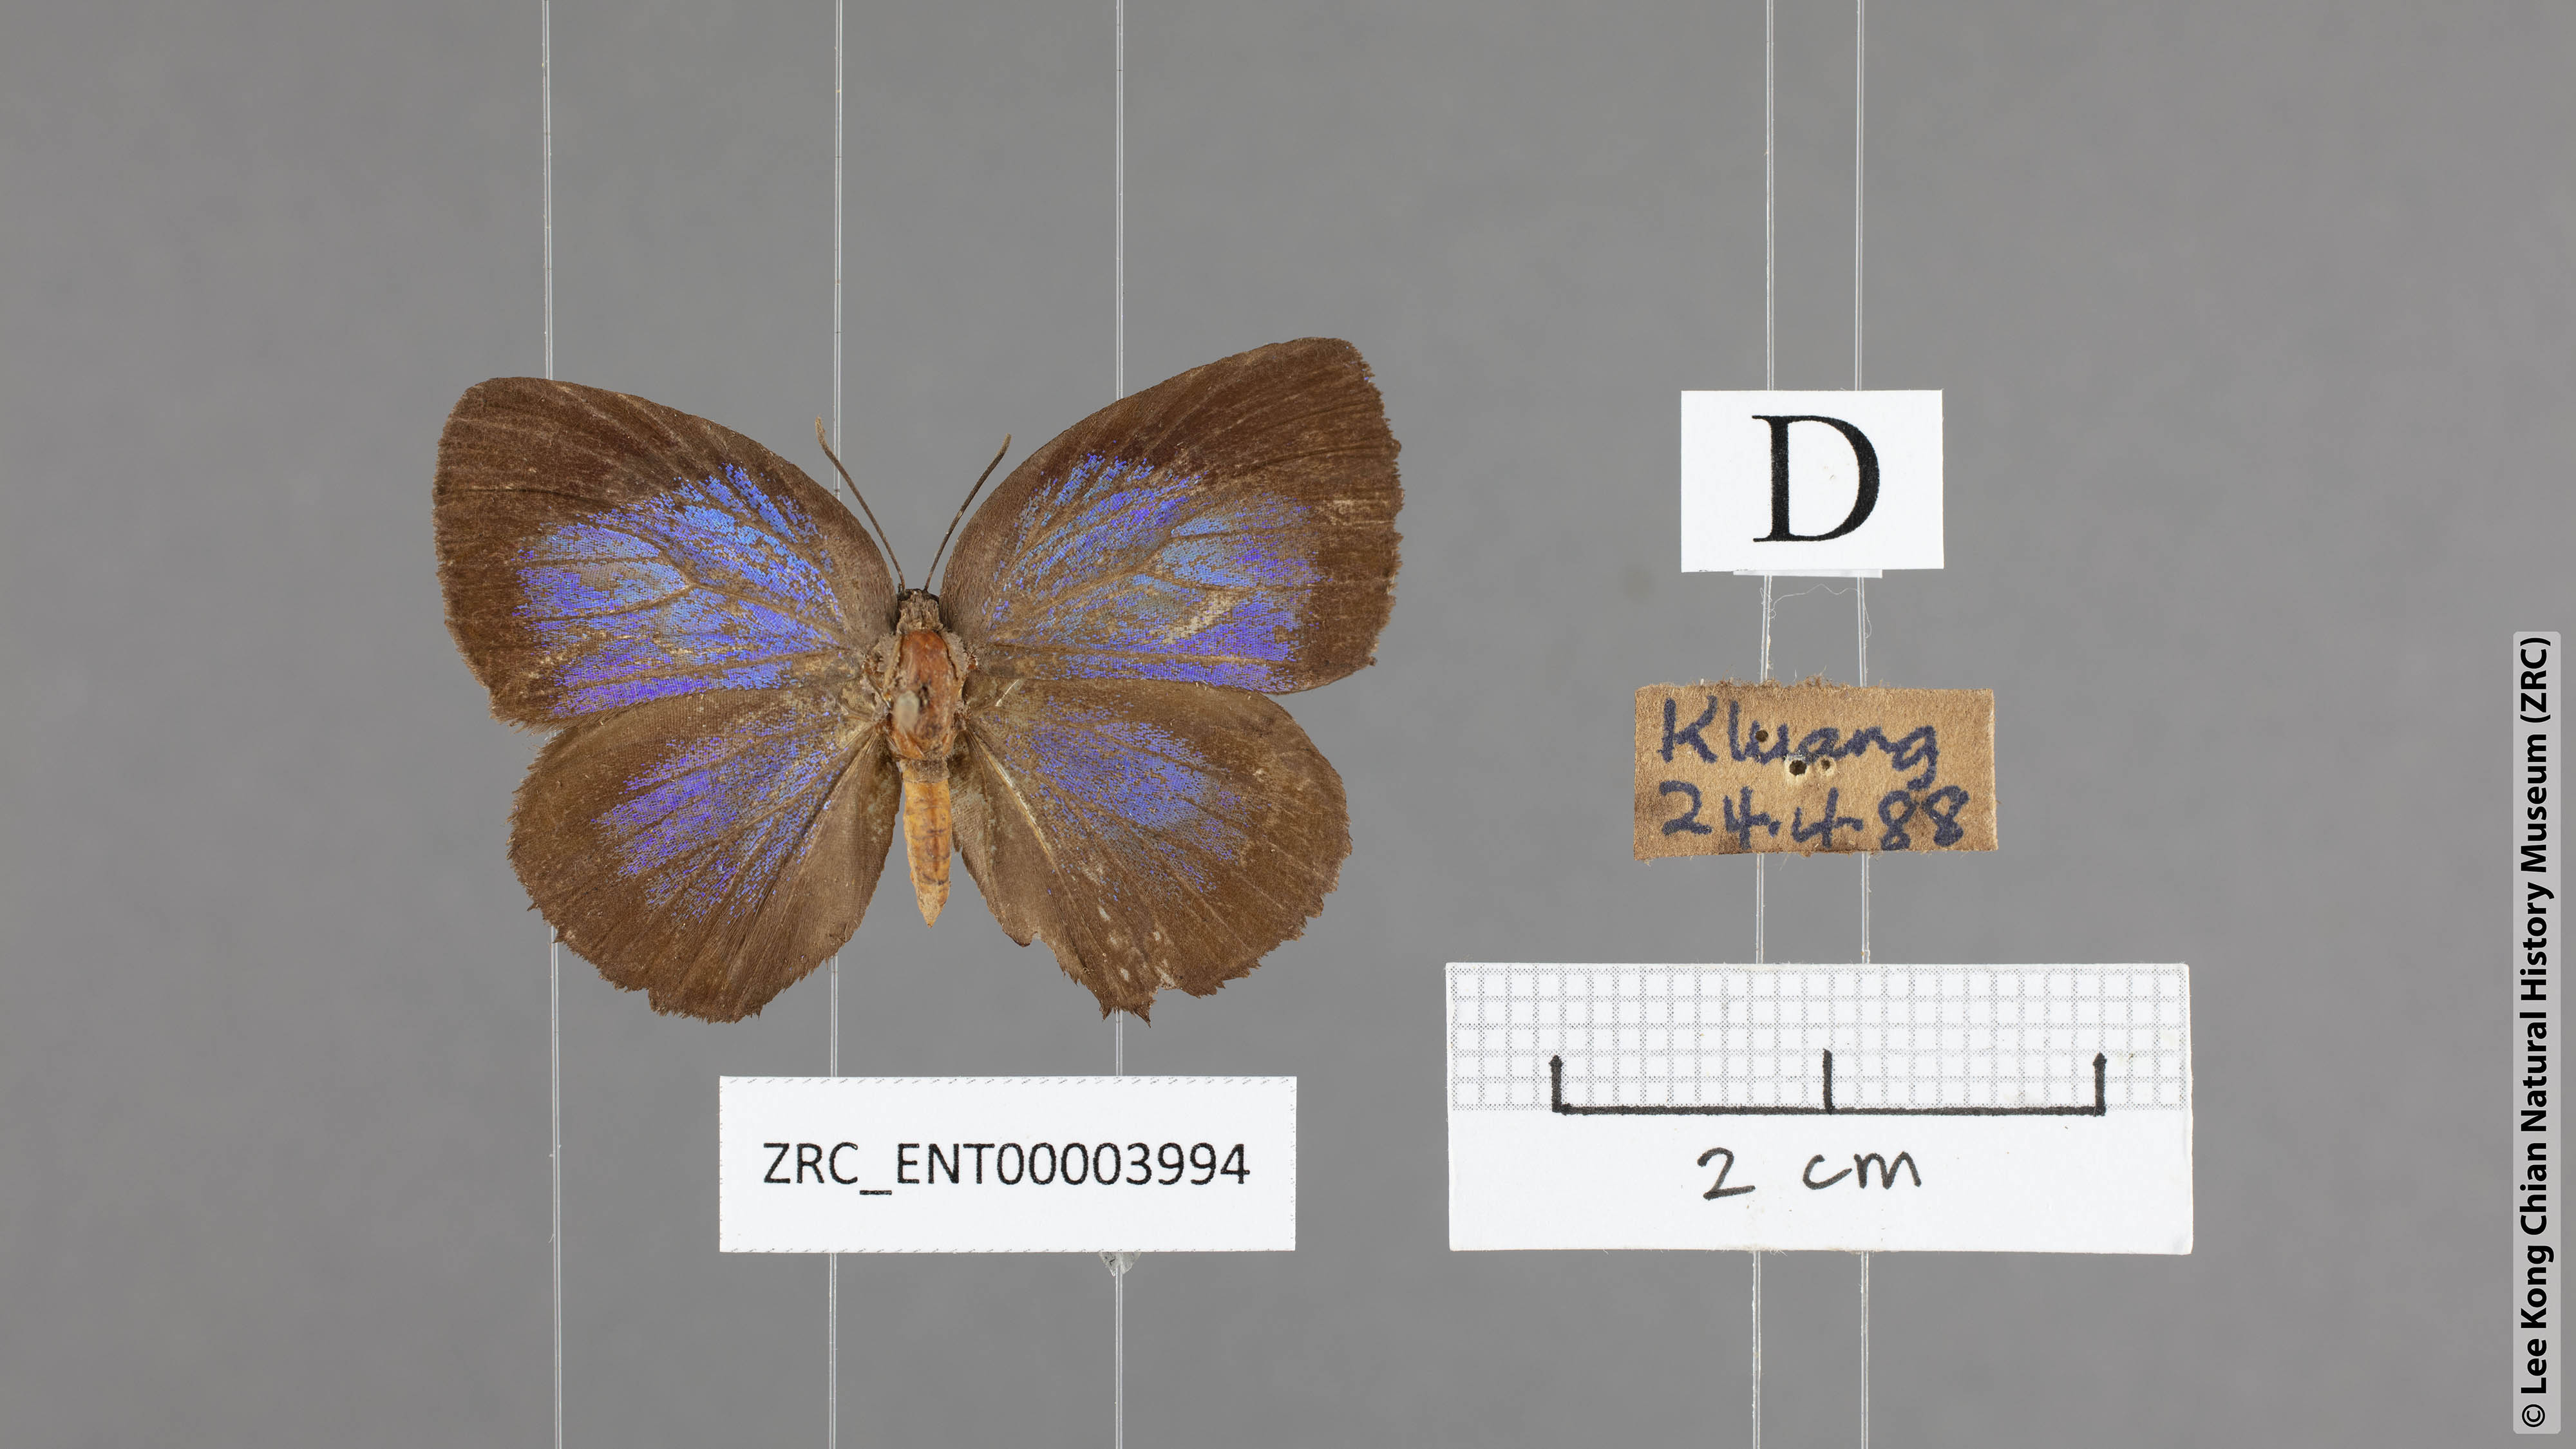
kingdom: Animalia
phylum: Arthropoda
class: Insecta
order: Lepidoptera
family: Lycaenidae
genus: Arhopala
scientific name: Arhopala major
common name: Major yellow oakblue
